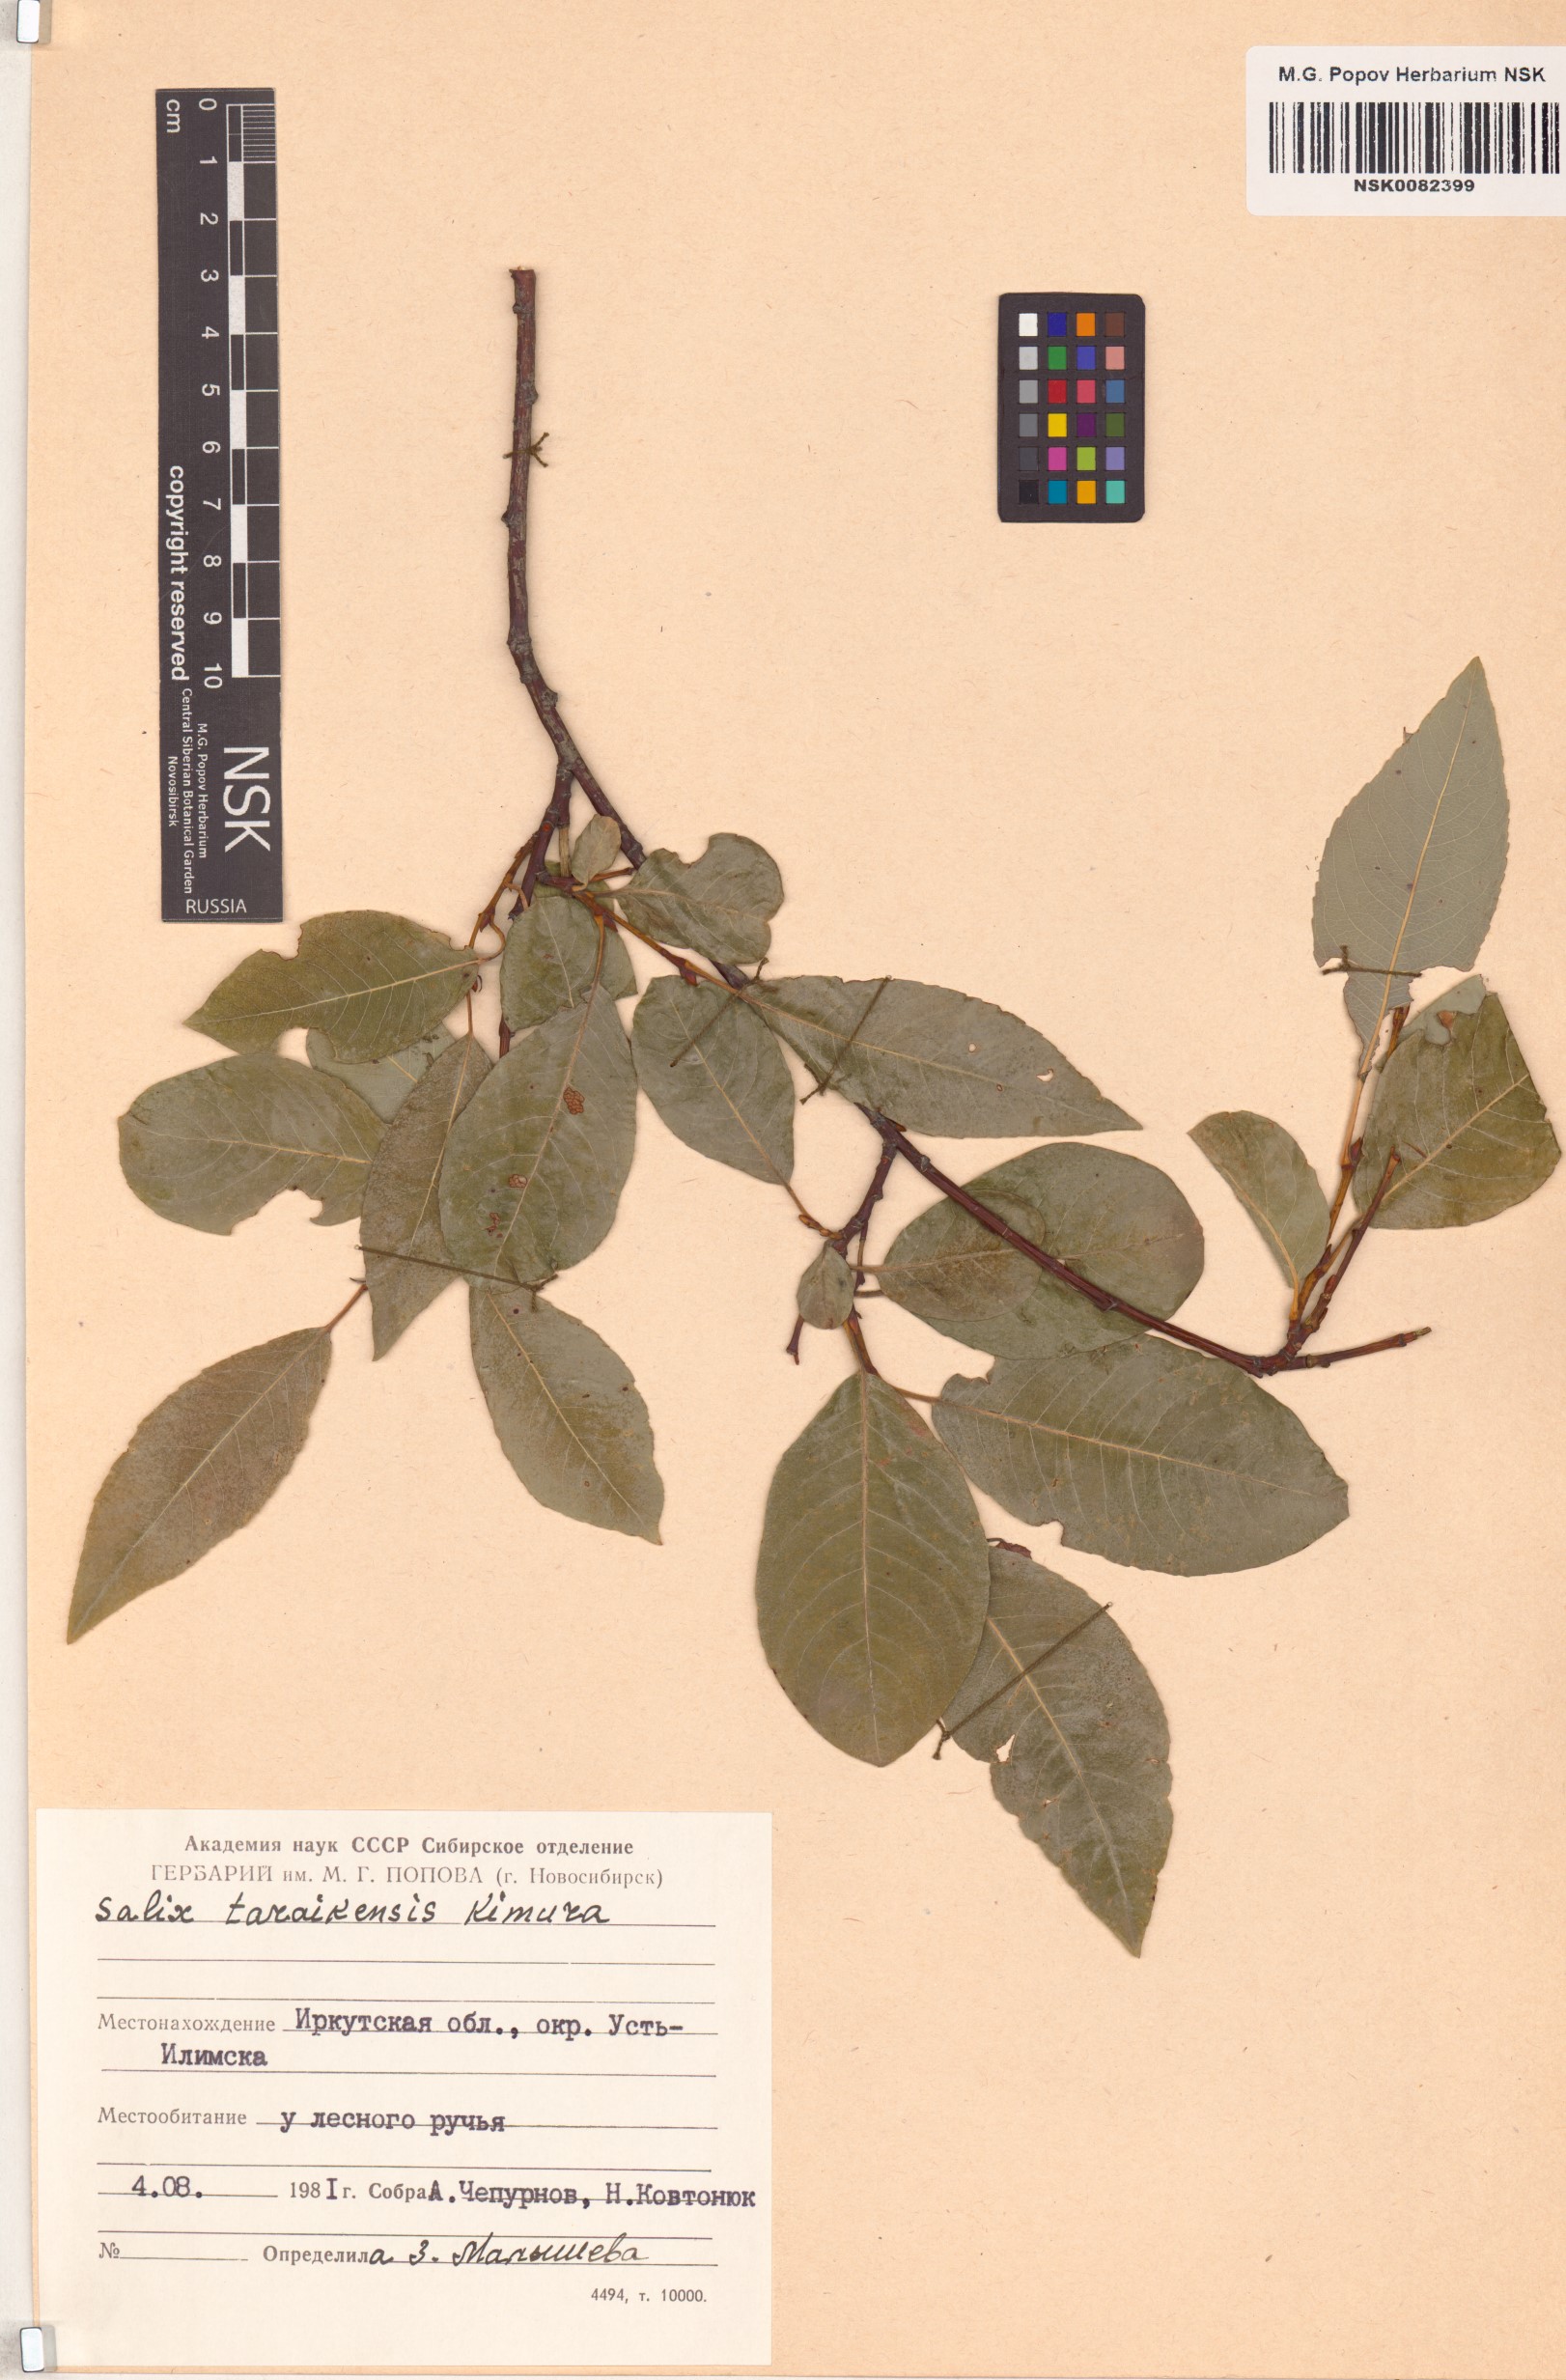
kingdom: Plantae
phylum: Tracheophyta
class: Magnoliopsida
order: Malpighiales
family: Salicaceae
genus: Salix
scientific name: Salix taraikensis
